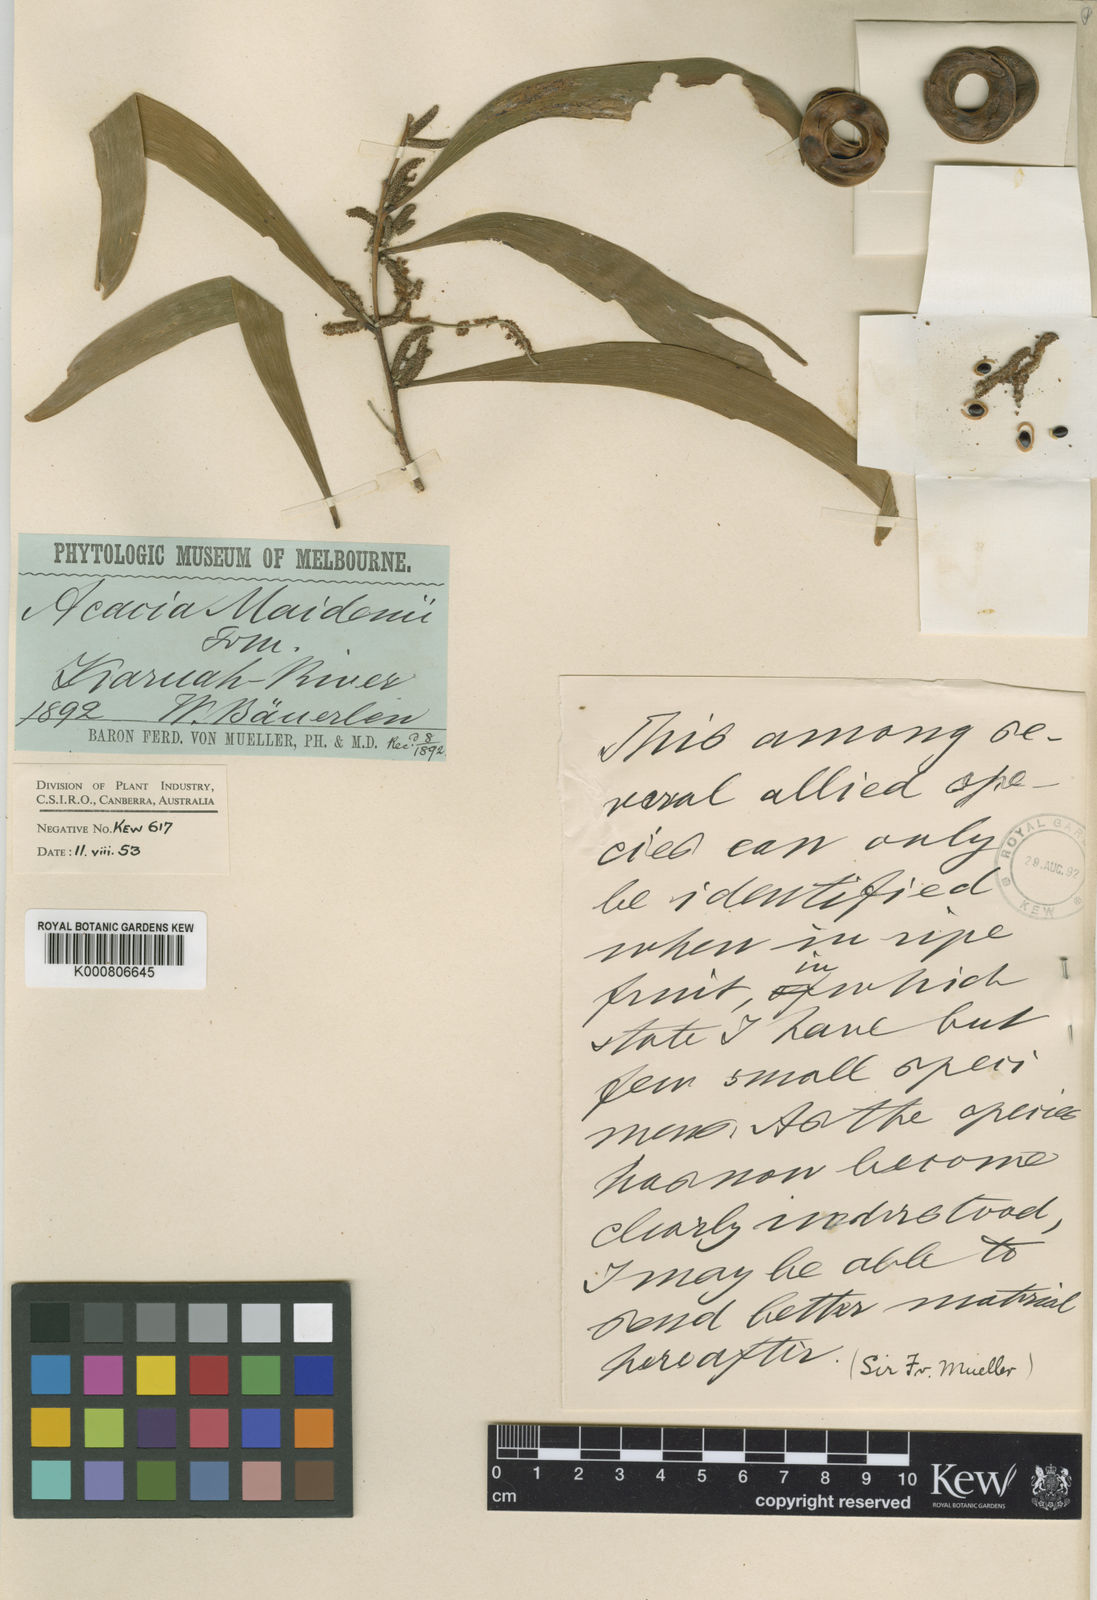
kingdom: Plantae
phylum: Tracheophyta
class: Magnoliopsida
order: Fabales
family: Fabaceae
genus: Acacia
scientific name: Acacia maidenii
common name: Maiden's wattle
